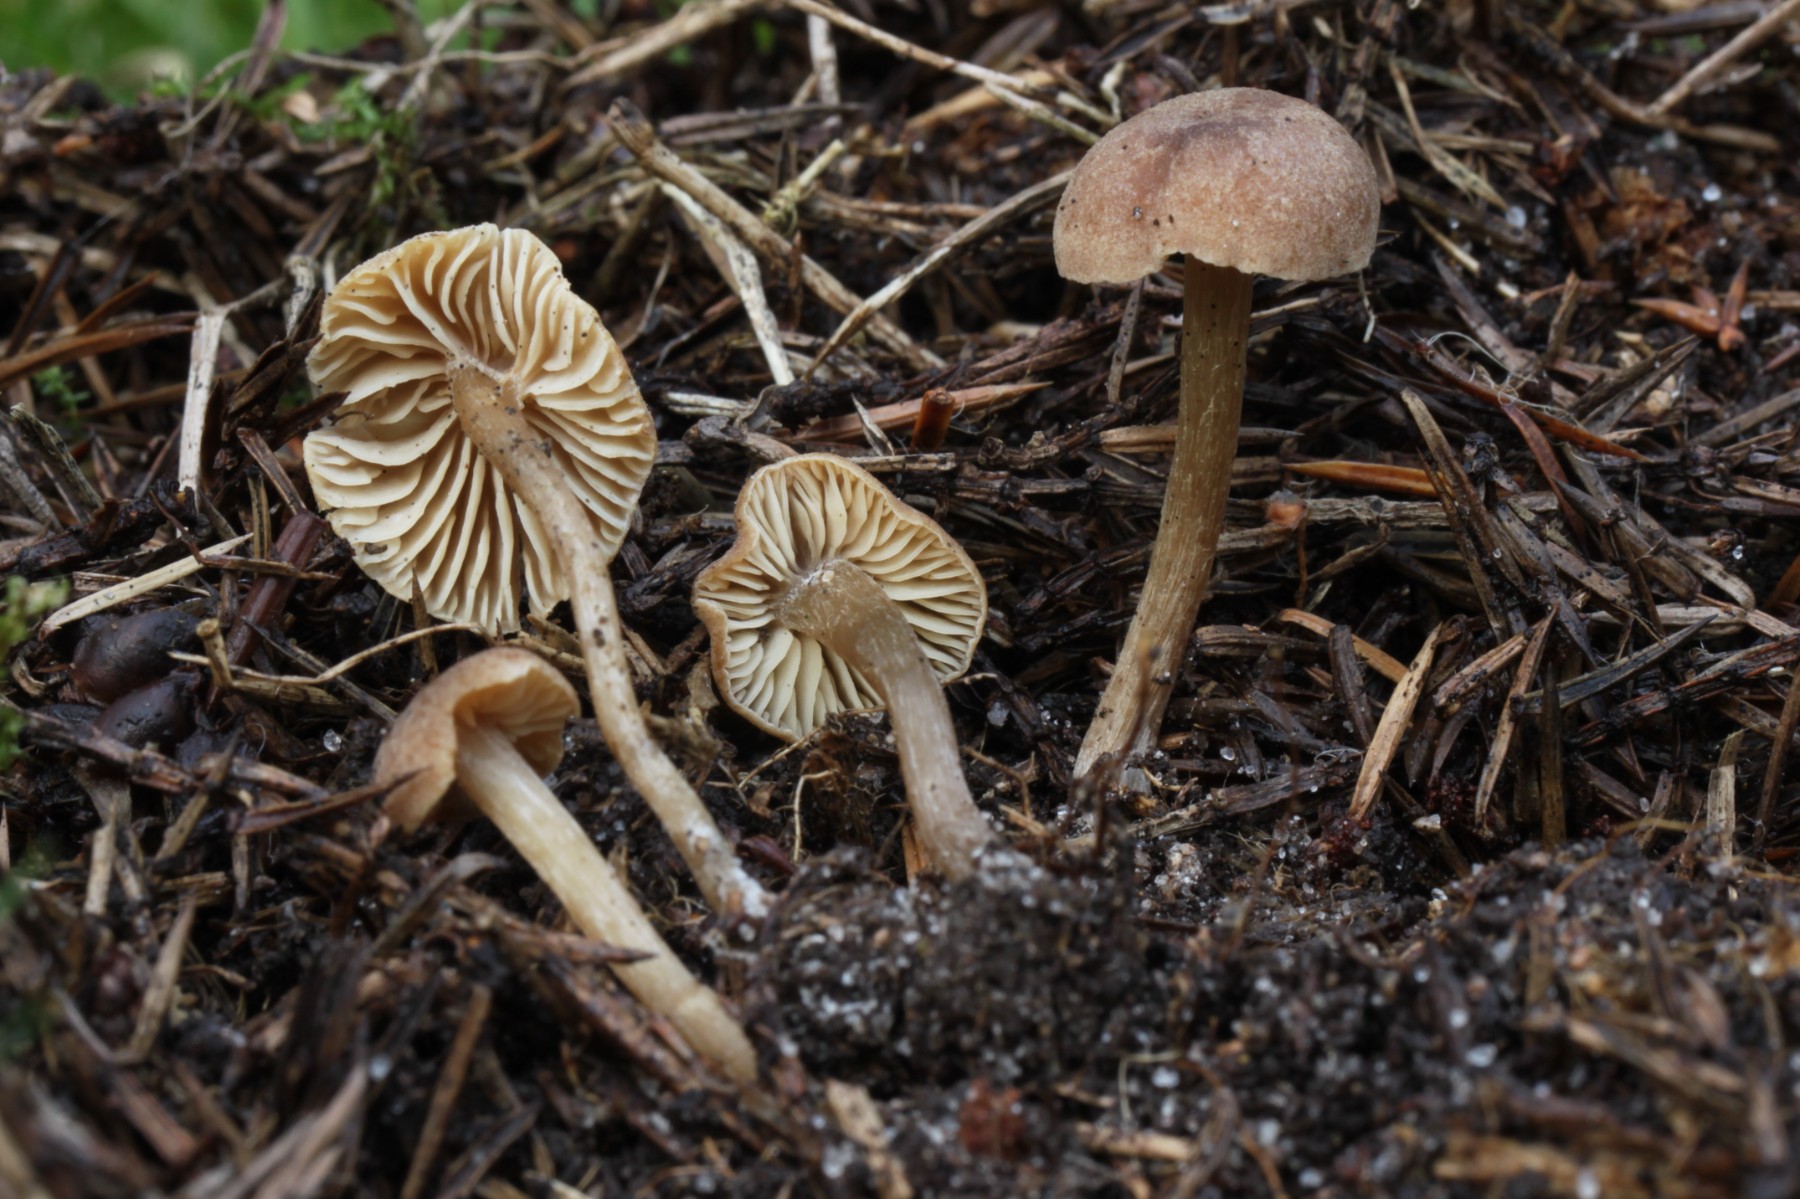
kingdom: Fungi
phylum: Basidiomycota
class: Agaricomycetes
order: Agaricales
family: Callistosporiaceae
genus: Pseudolaccaria
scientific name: Pseudolaccaria pachyphylla
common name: hvælvet tykblad
